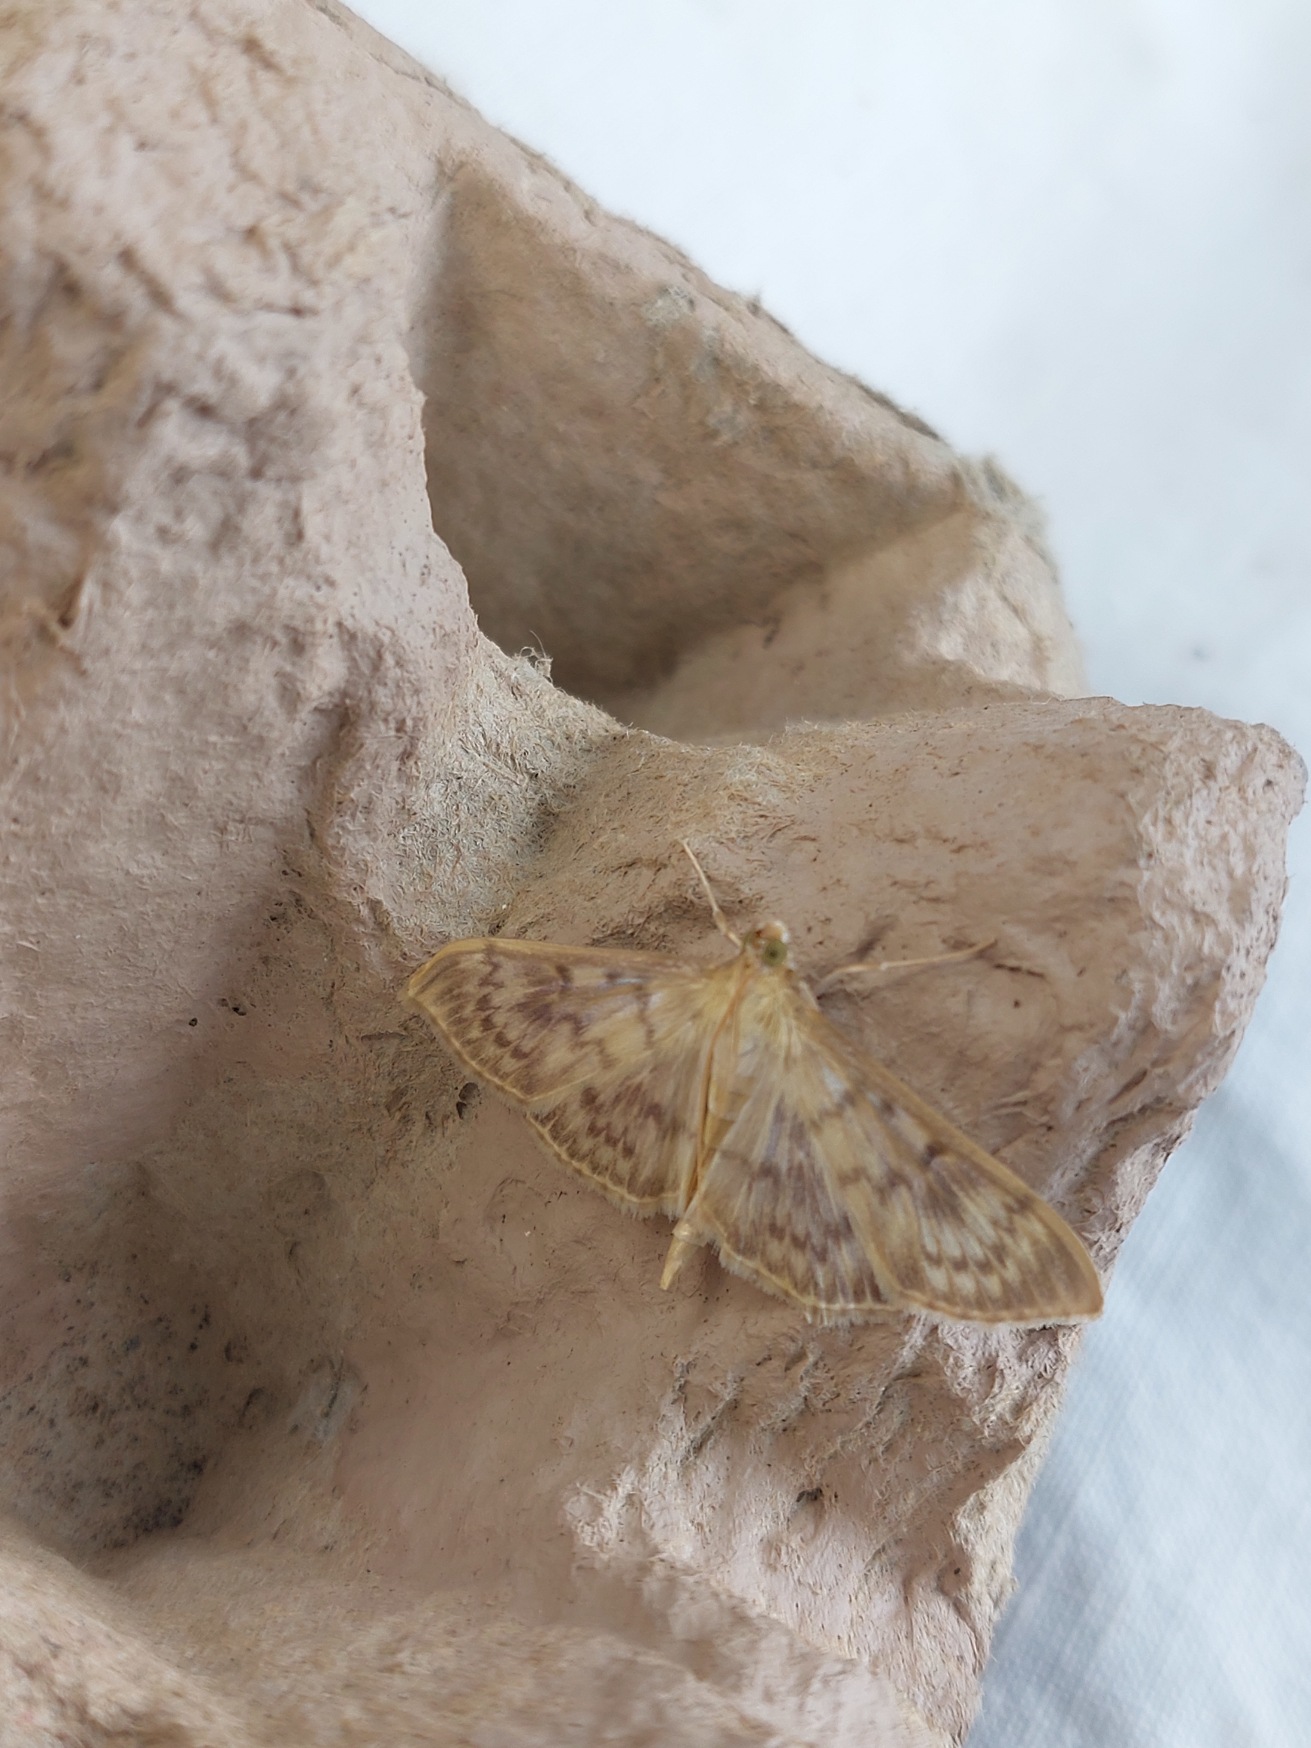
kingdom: Animalia
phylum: Arthropoda
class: Insecta
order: Lepidoptera
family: Crambidae
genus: Patania
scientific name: Patania ruralis
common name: Perlemorshalvmøl
